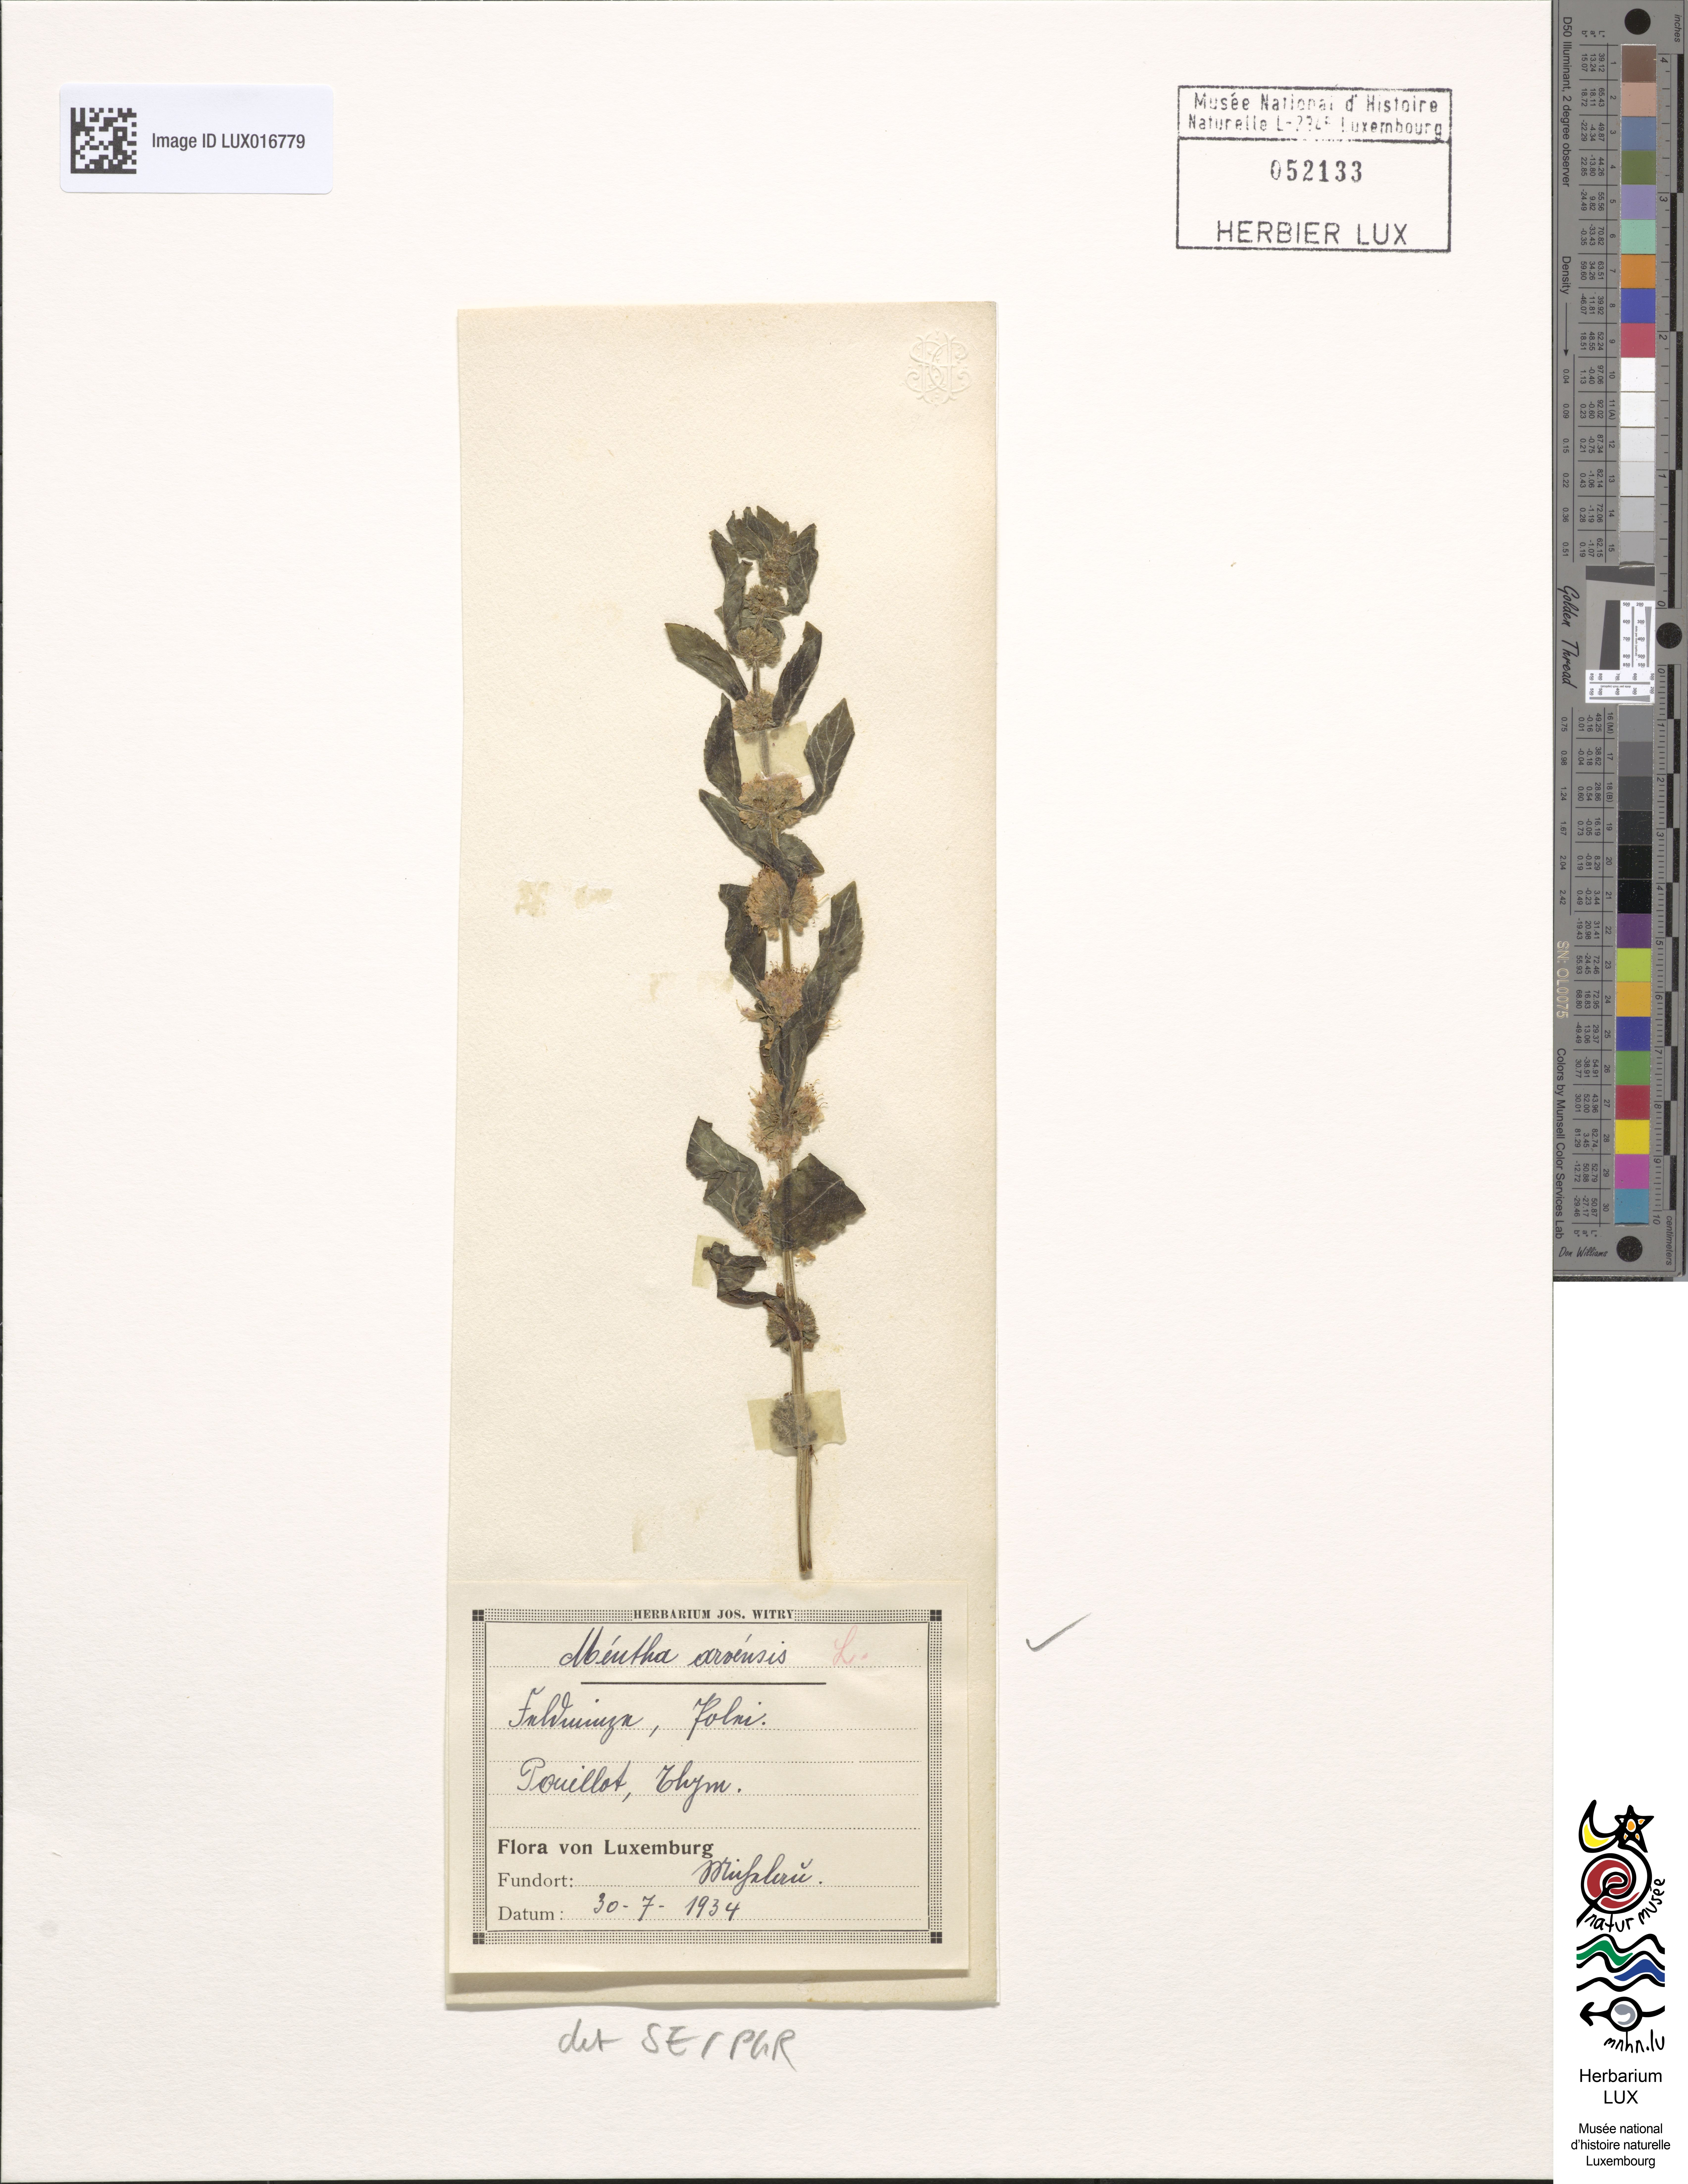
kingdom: Plantae
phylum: Tracheophyta
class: Magnoliopsida
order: Lamiales
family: Lamiaceae
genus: Mentha
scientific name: Mentha arvensis
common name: Corn mint
